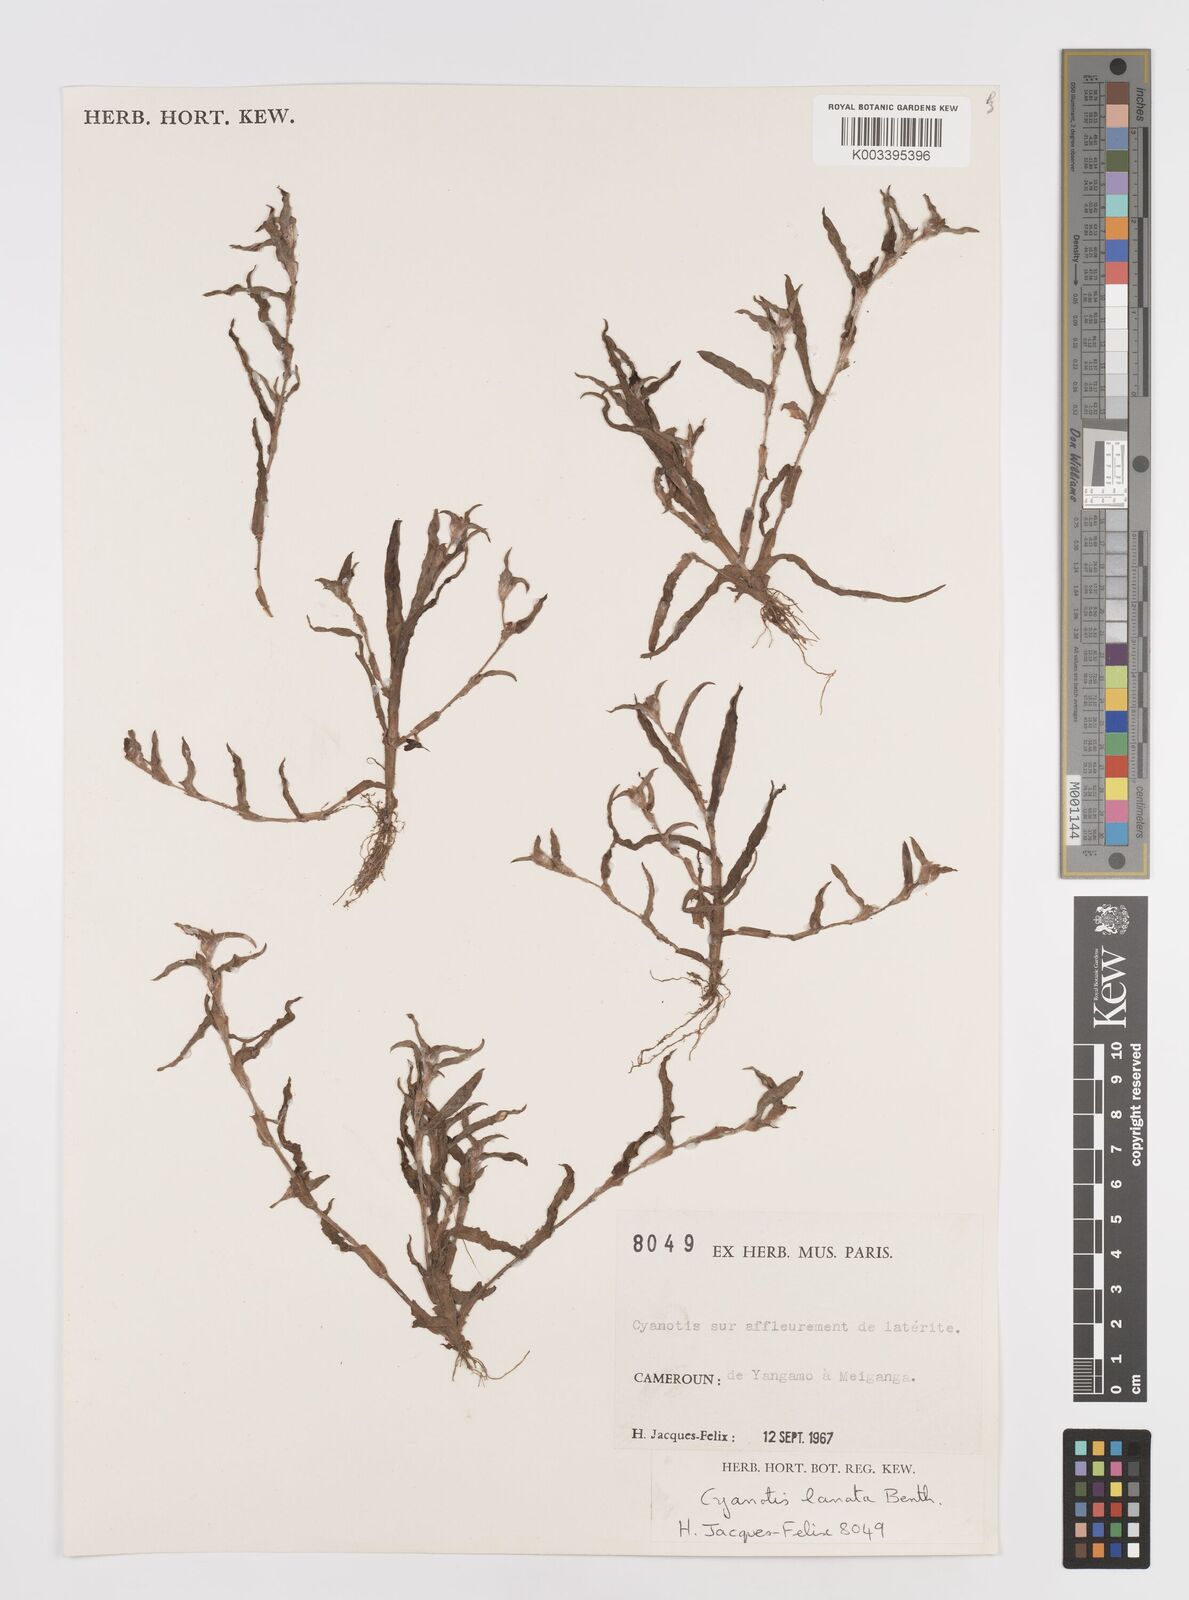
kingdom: Plantae
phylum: Tracheophyta
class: Liliopsida
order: Commelinales
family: Commelinaceae
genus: Cyanotis
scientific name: Cyanotis lanata
